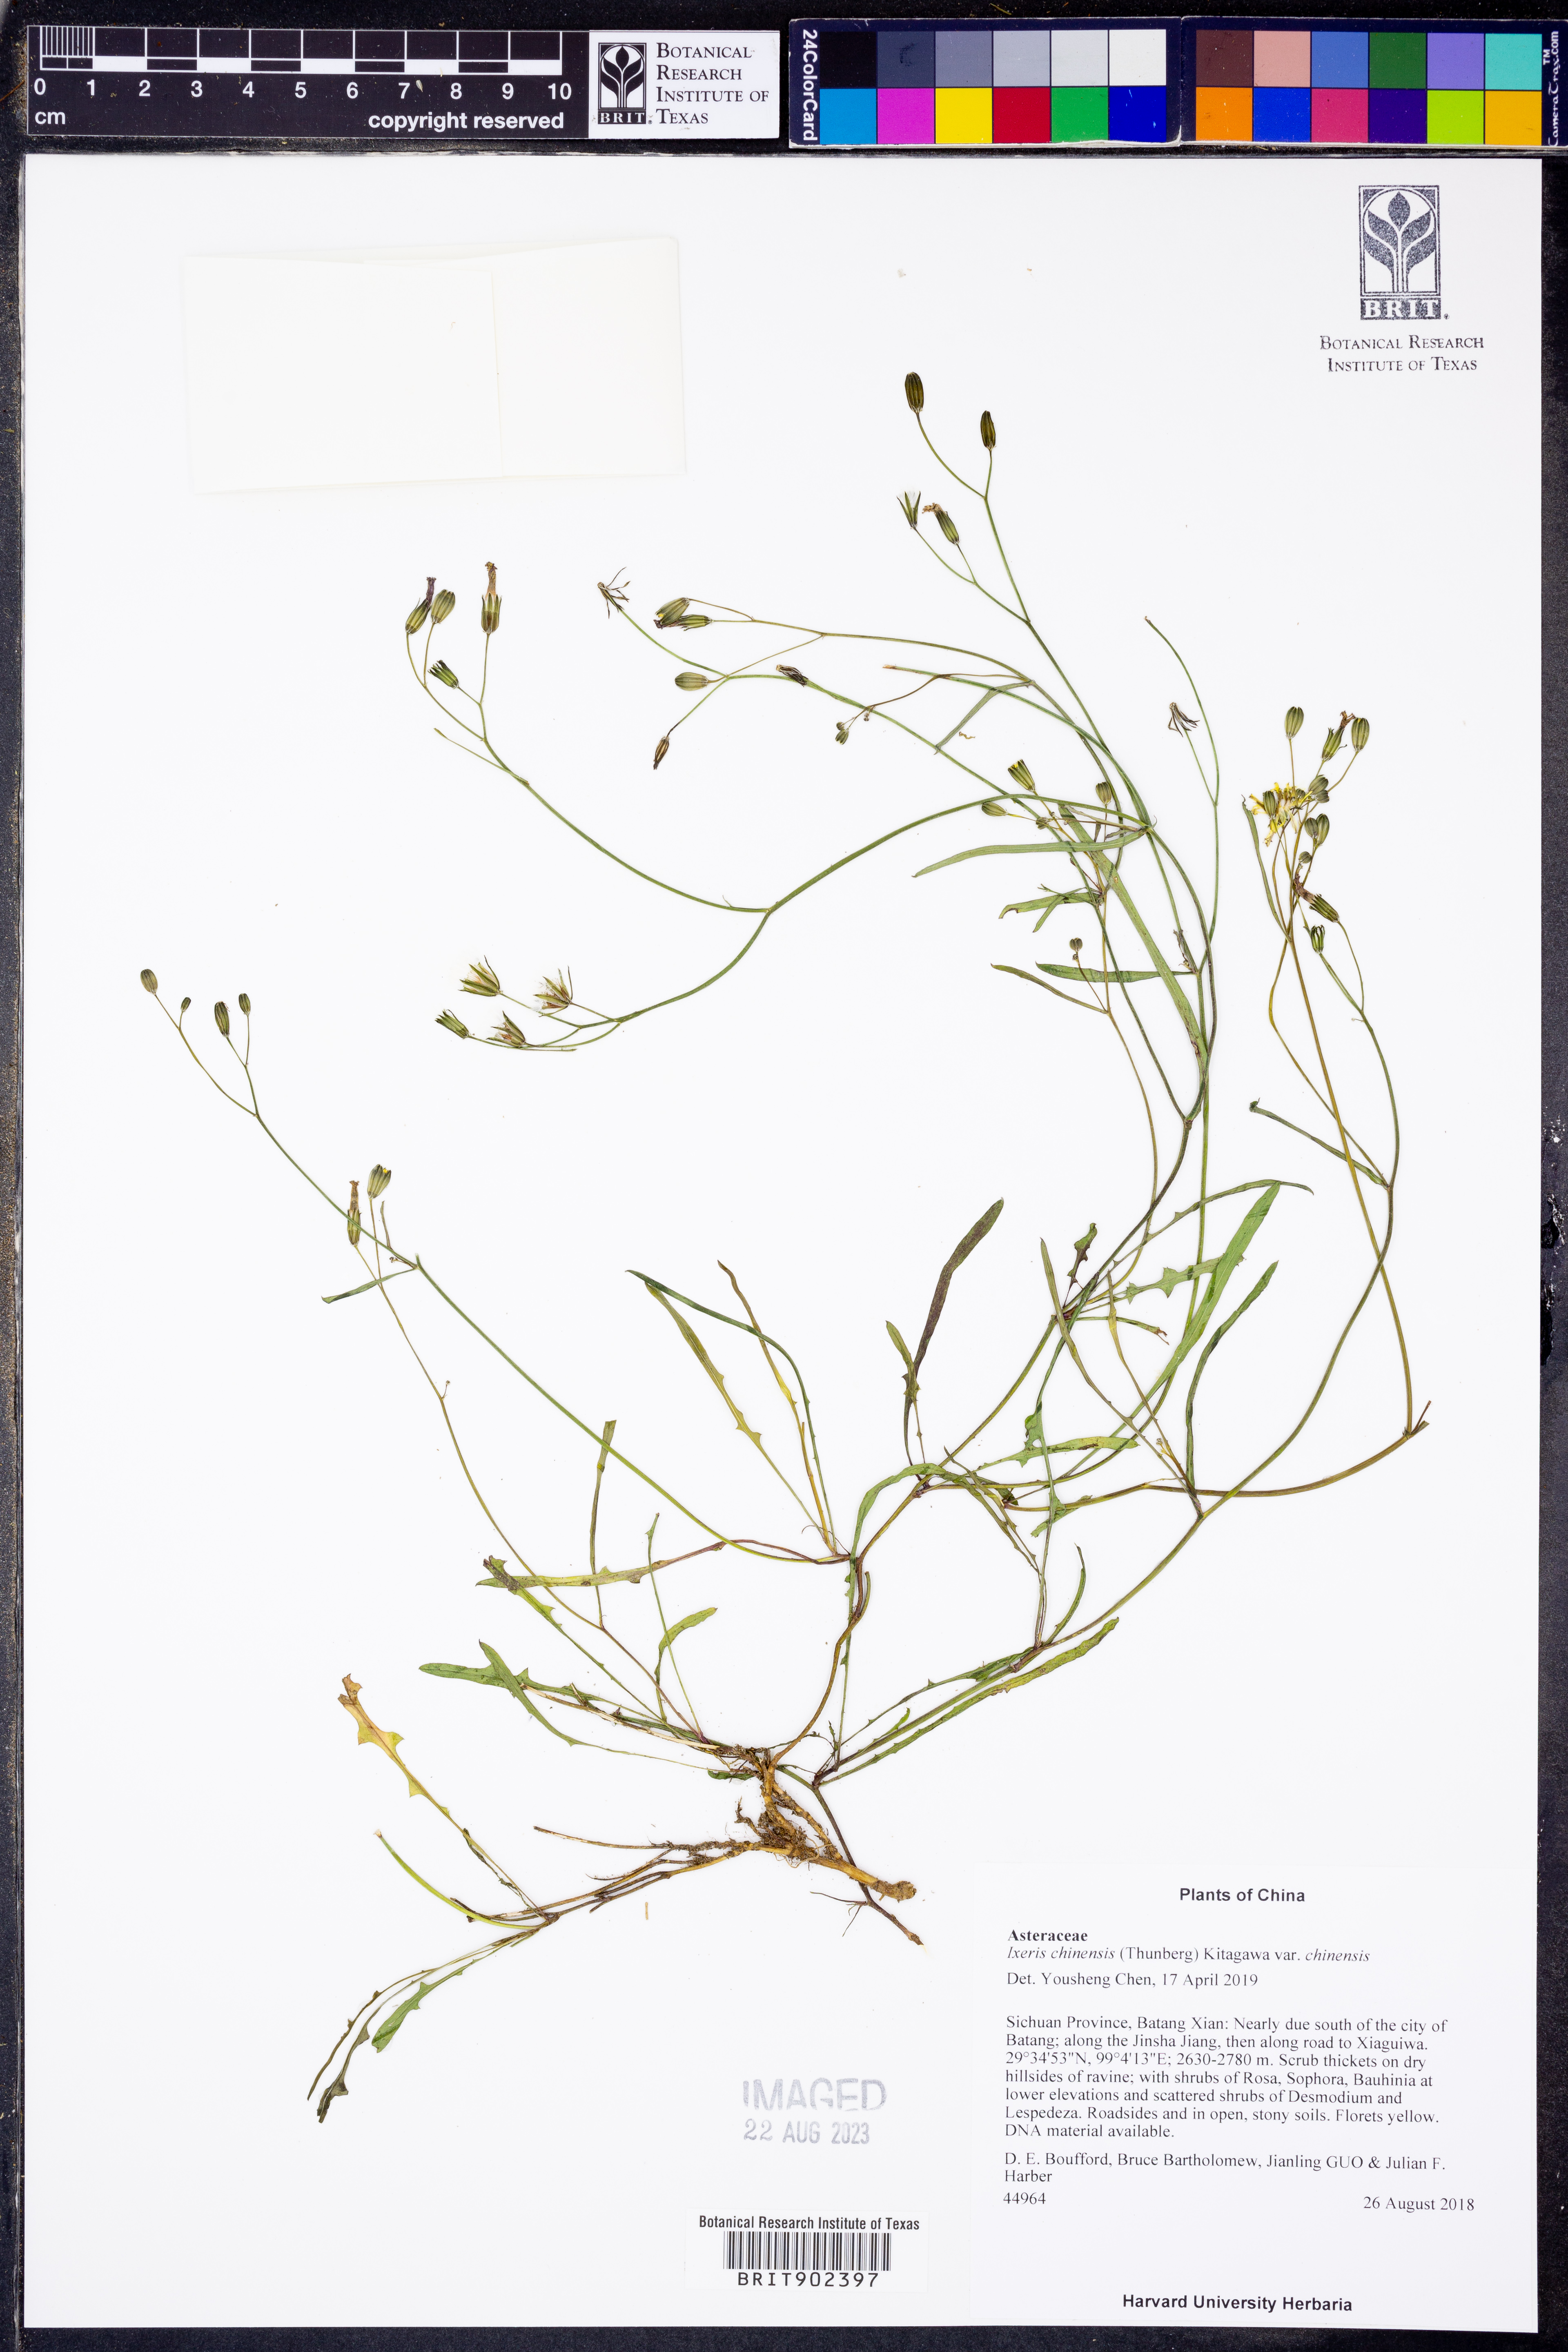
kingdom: Plantae
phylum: Tracheophyta
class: Magnoliopsida
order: Asterales
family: Asteraceae
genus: Ixeris
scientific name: Ixeris chinensis
